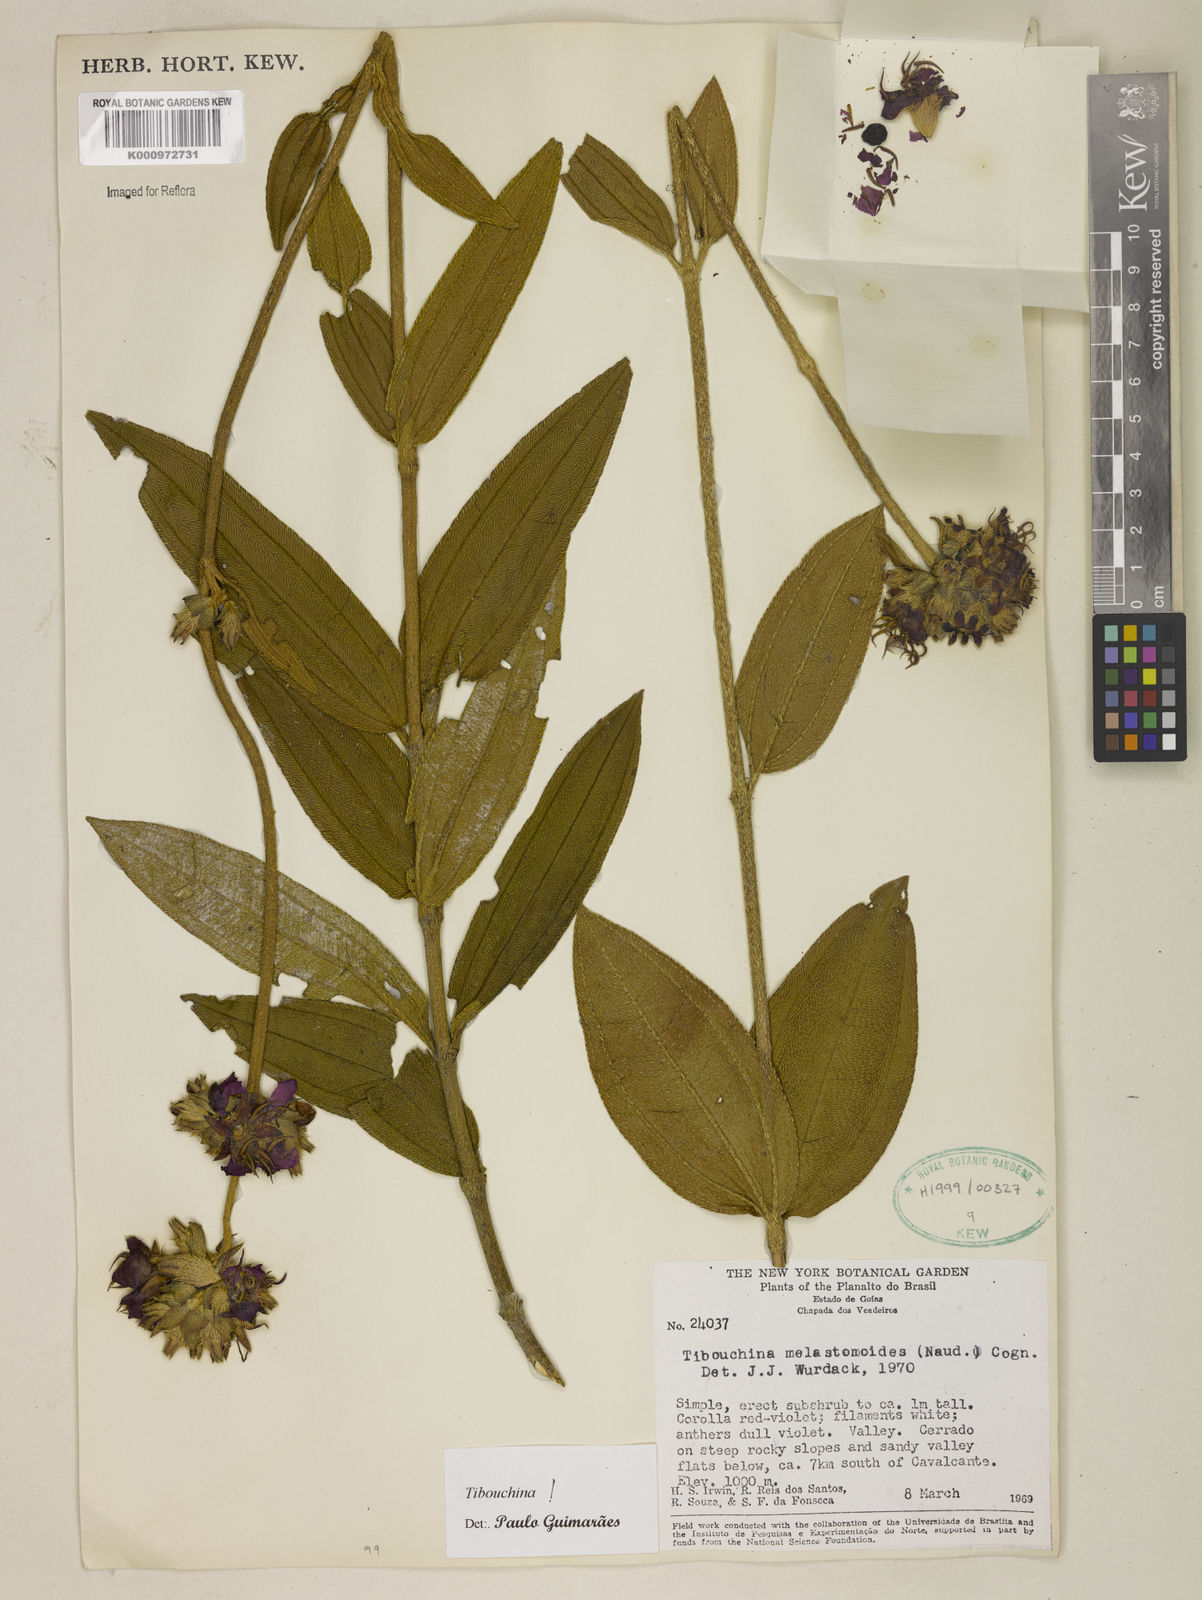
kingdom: Plantae
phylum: Tracheophyta
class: Magnoliopsida
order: Myrtales
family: Melastomataceae
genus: Pleroma
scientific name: Pleroma melastomoides
